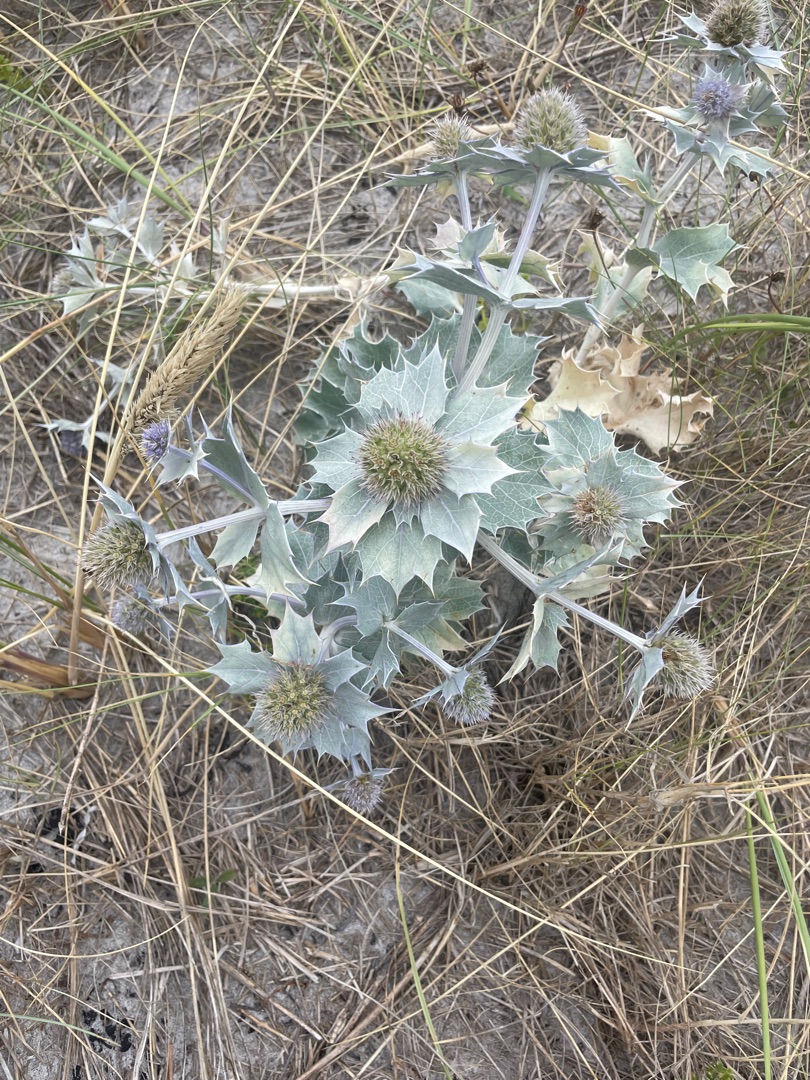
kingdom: Plantae
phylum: Tracheophyta
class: Magnoliopsida
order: Apiales
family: Apiaceae
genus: Eryngium
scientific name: Eryngium maritimum
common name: Strand-mandstro
